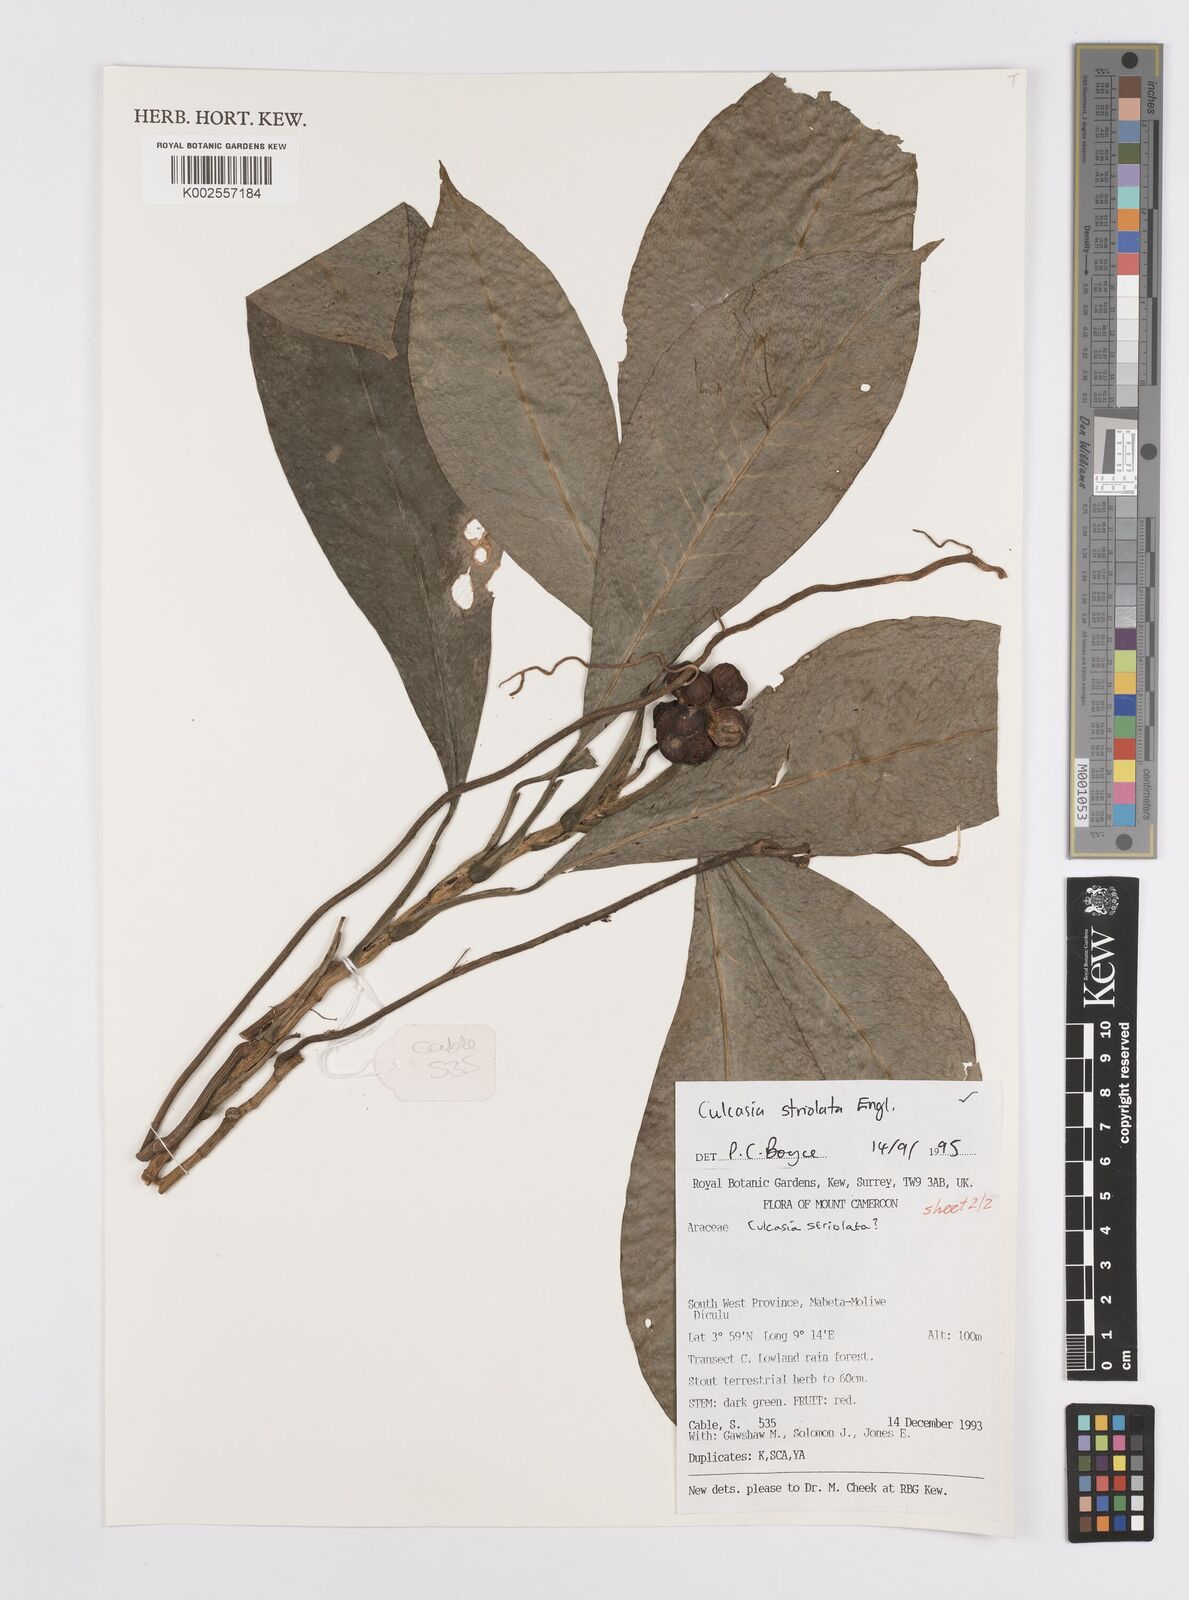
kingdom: Plantae
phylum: Tracheophyta
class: Liliopsida
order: Alismatales
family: Araceae
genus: Culcasia
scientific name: Culcasia striolata
